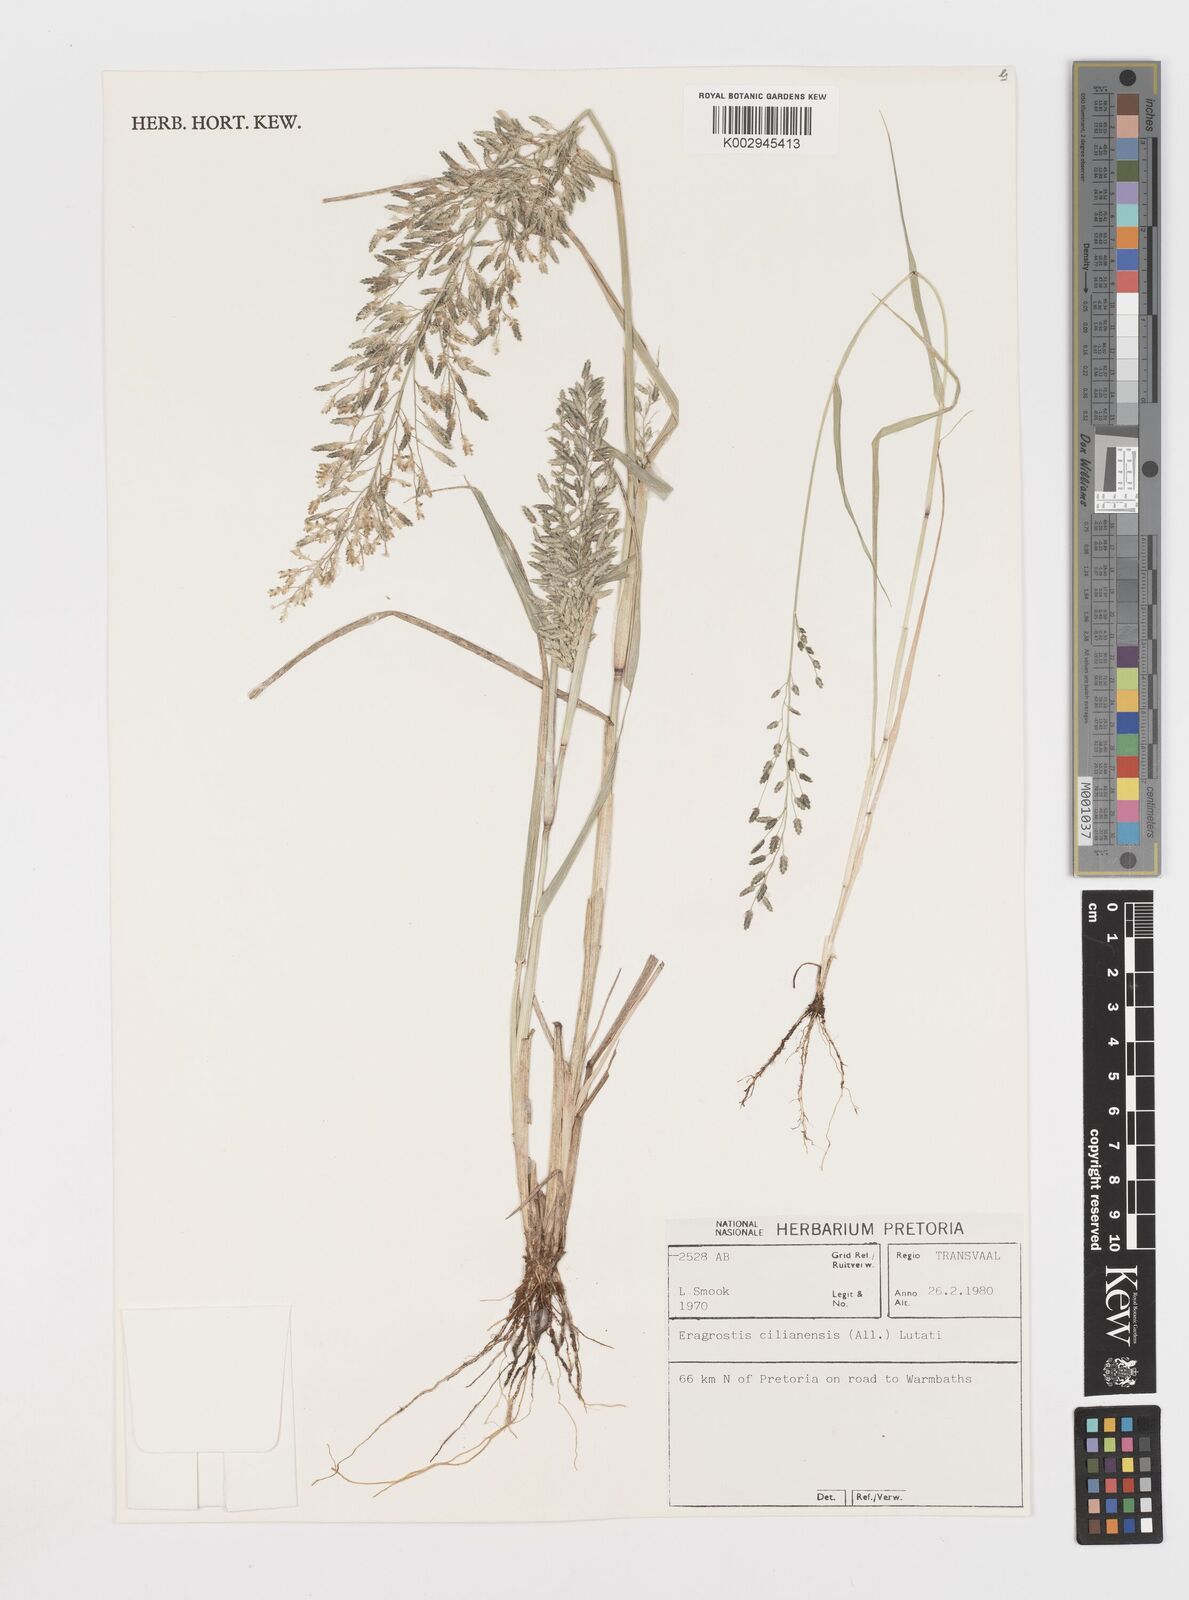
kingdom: Plantae
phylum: Tracheophyta
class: Liliopsida
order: Poales
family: Poaceae
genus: Eragrostis
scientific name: Eragrostis cilianensis
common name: Stinkgrass
